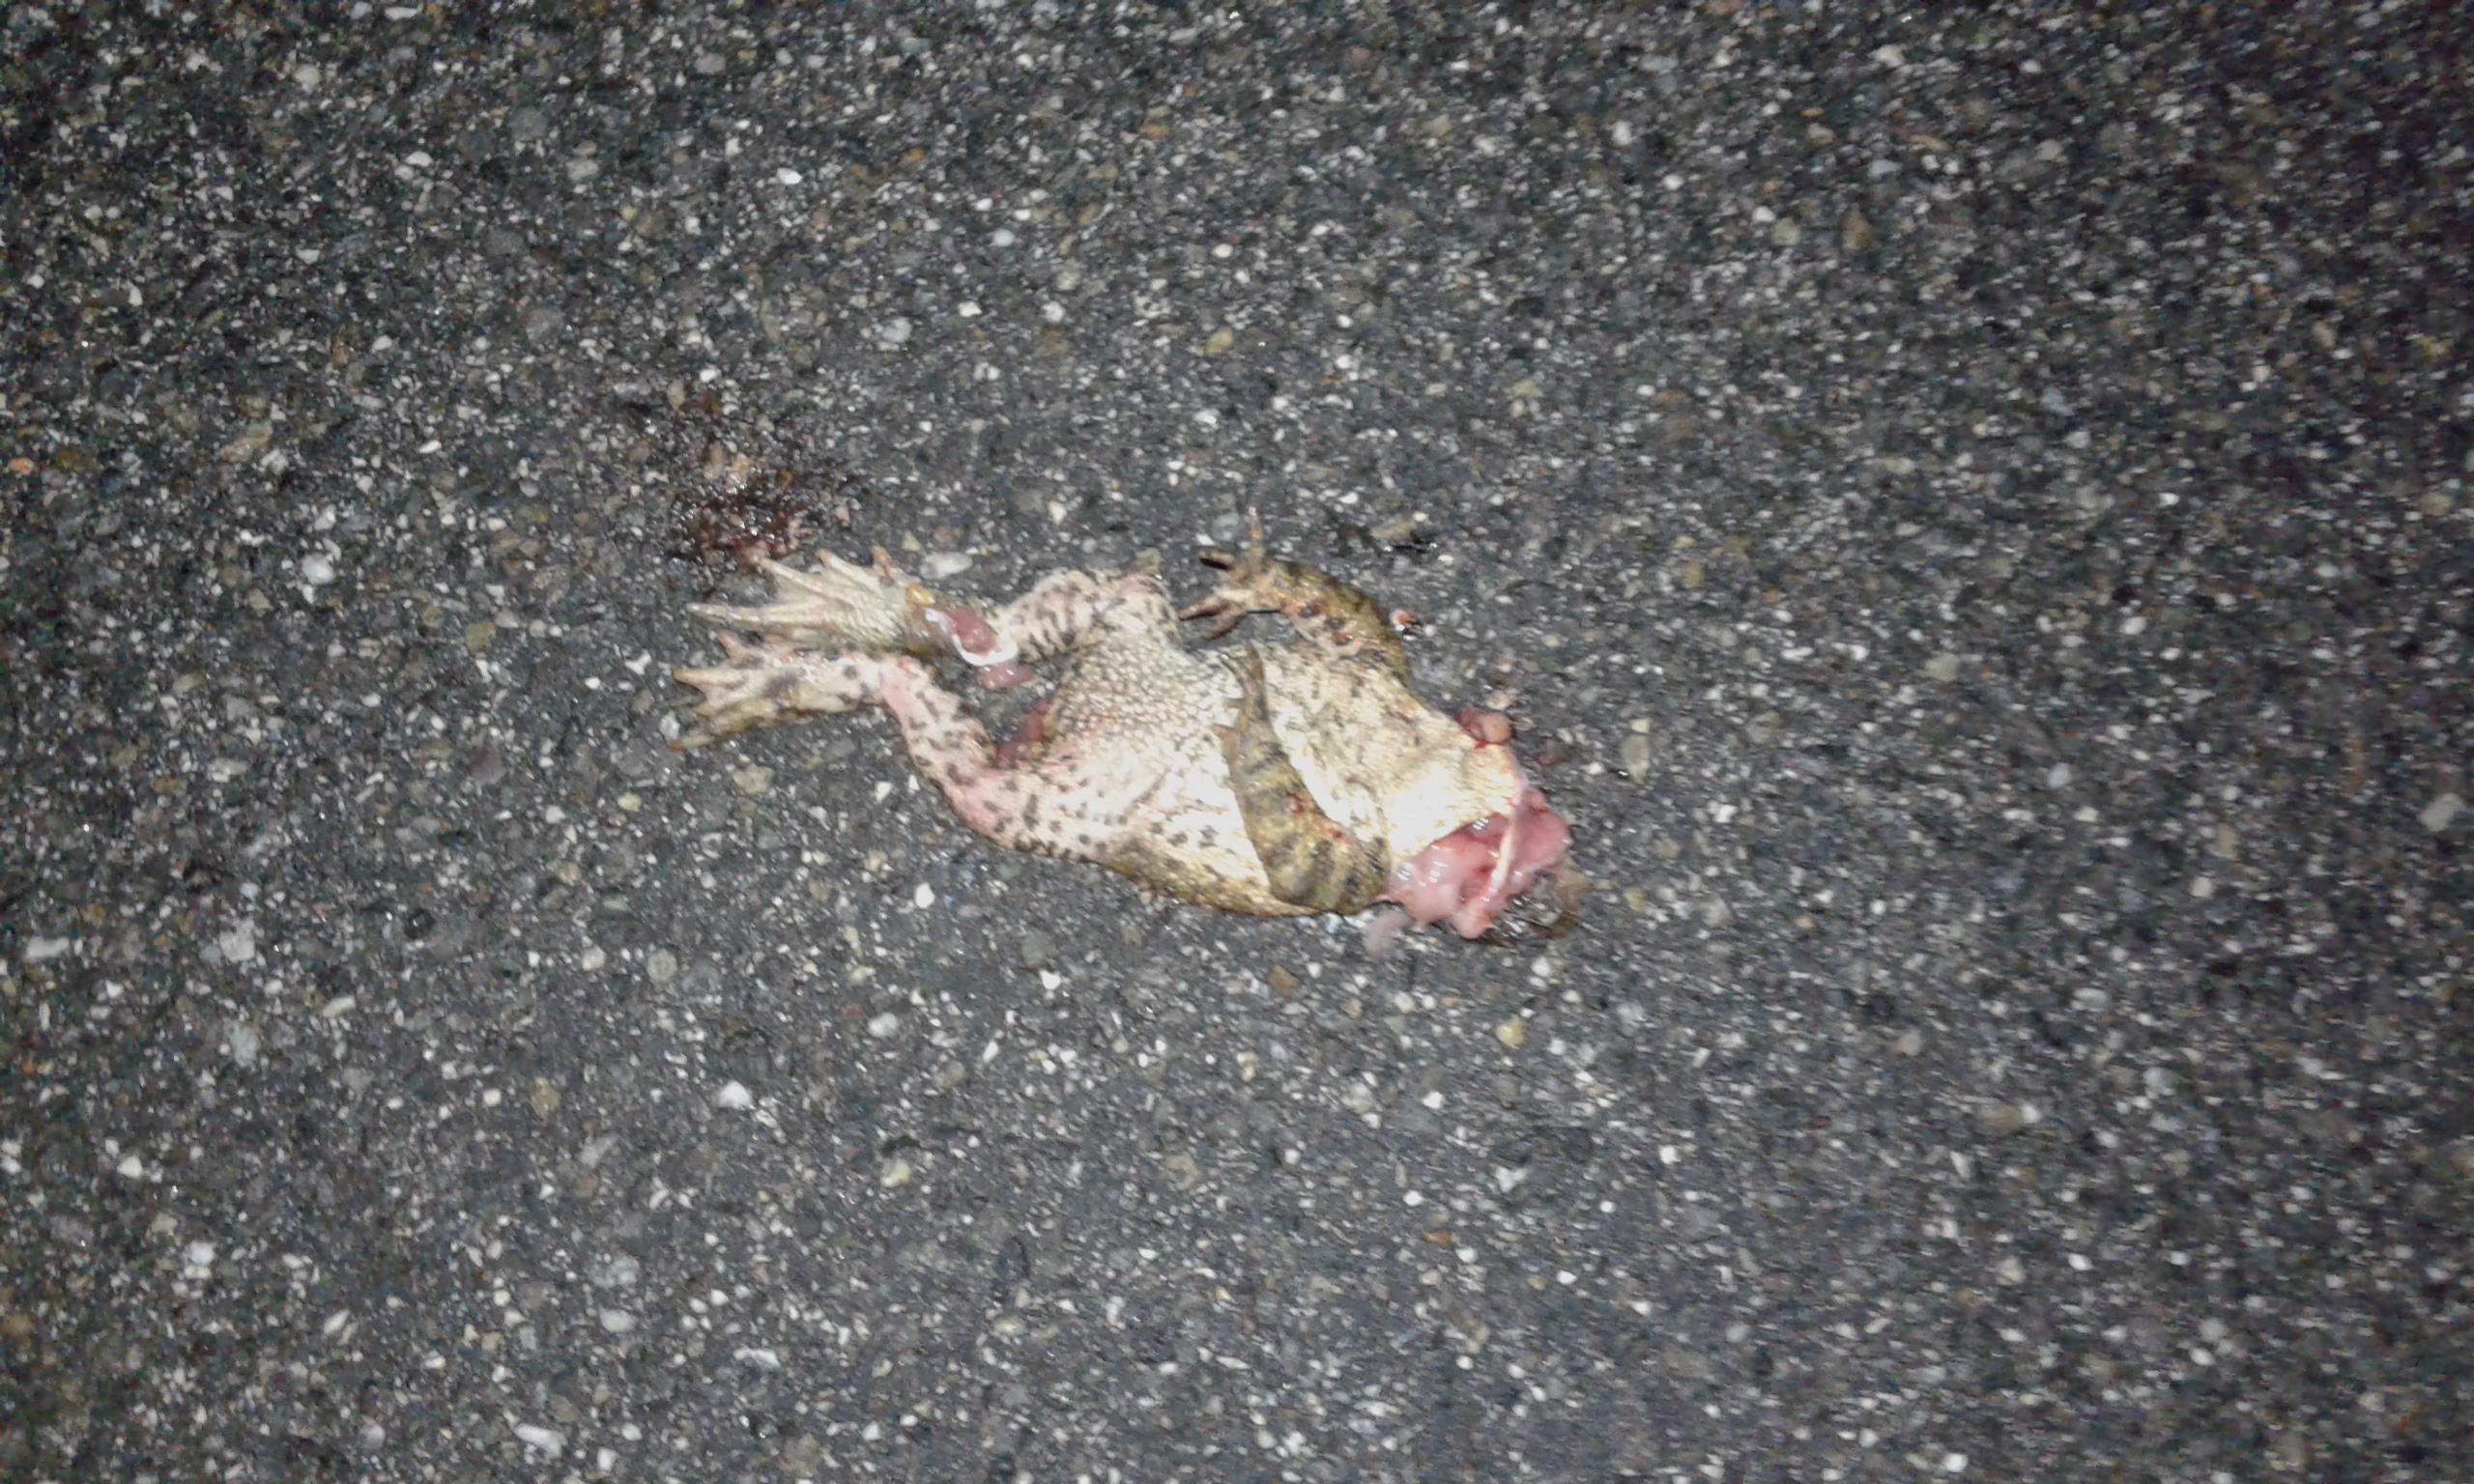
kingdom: Animalia
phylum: Chordata
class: Amphibia
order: Anura
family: Bufonidae
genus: Bufo
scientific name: Bufo bufo
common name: Common toad
